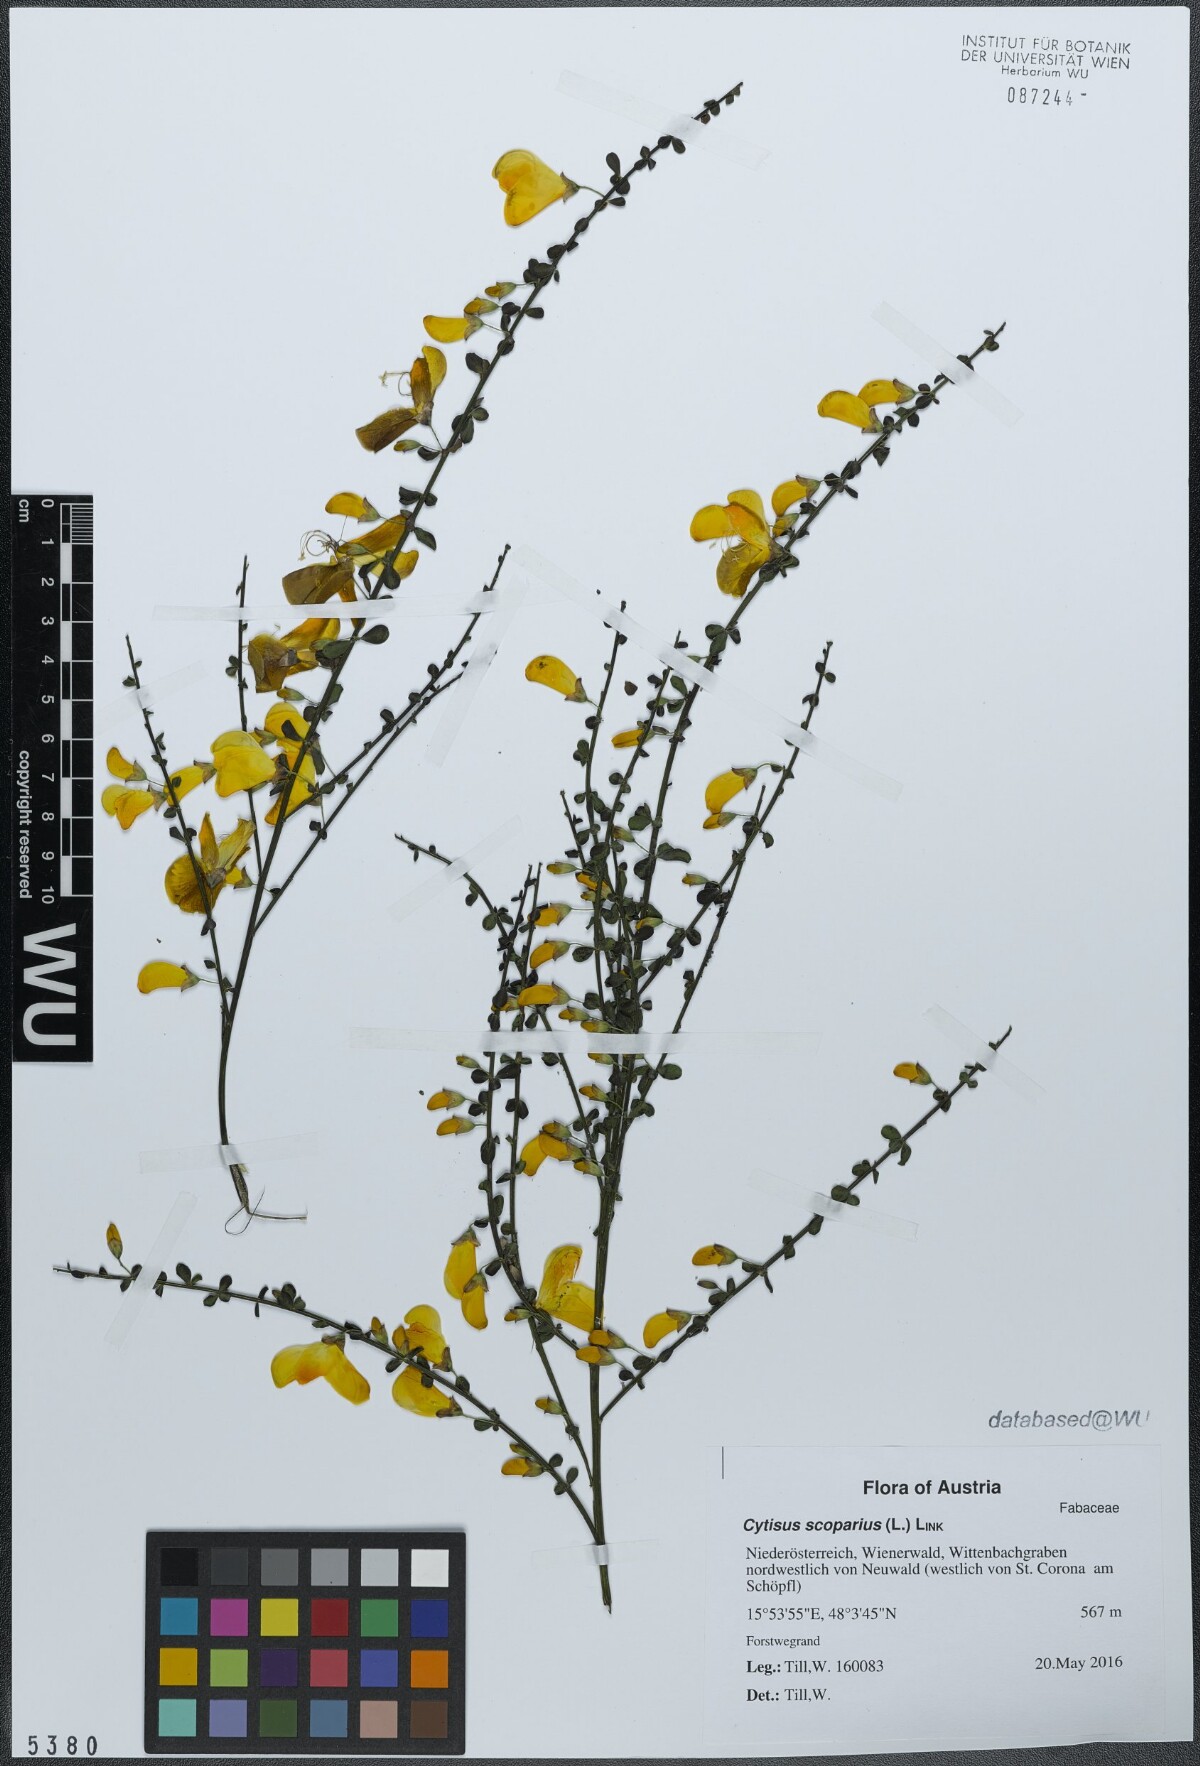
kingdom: Plantae
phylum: Tracheophyta
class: Magnoliopsida
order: Fabales
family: Fabaceae
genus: Cytisus
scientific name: Cytisus scoparius
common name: Scotch broom
